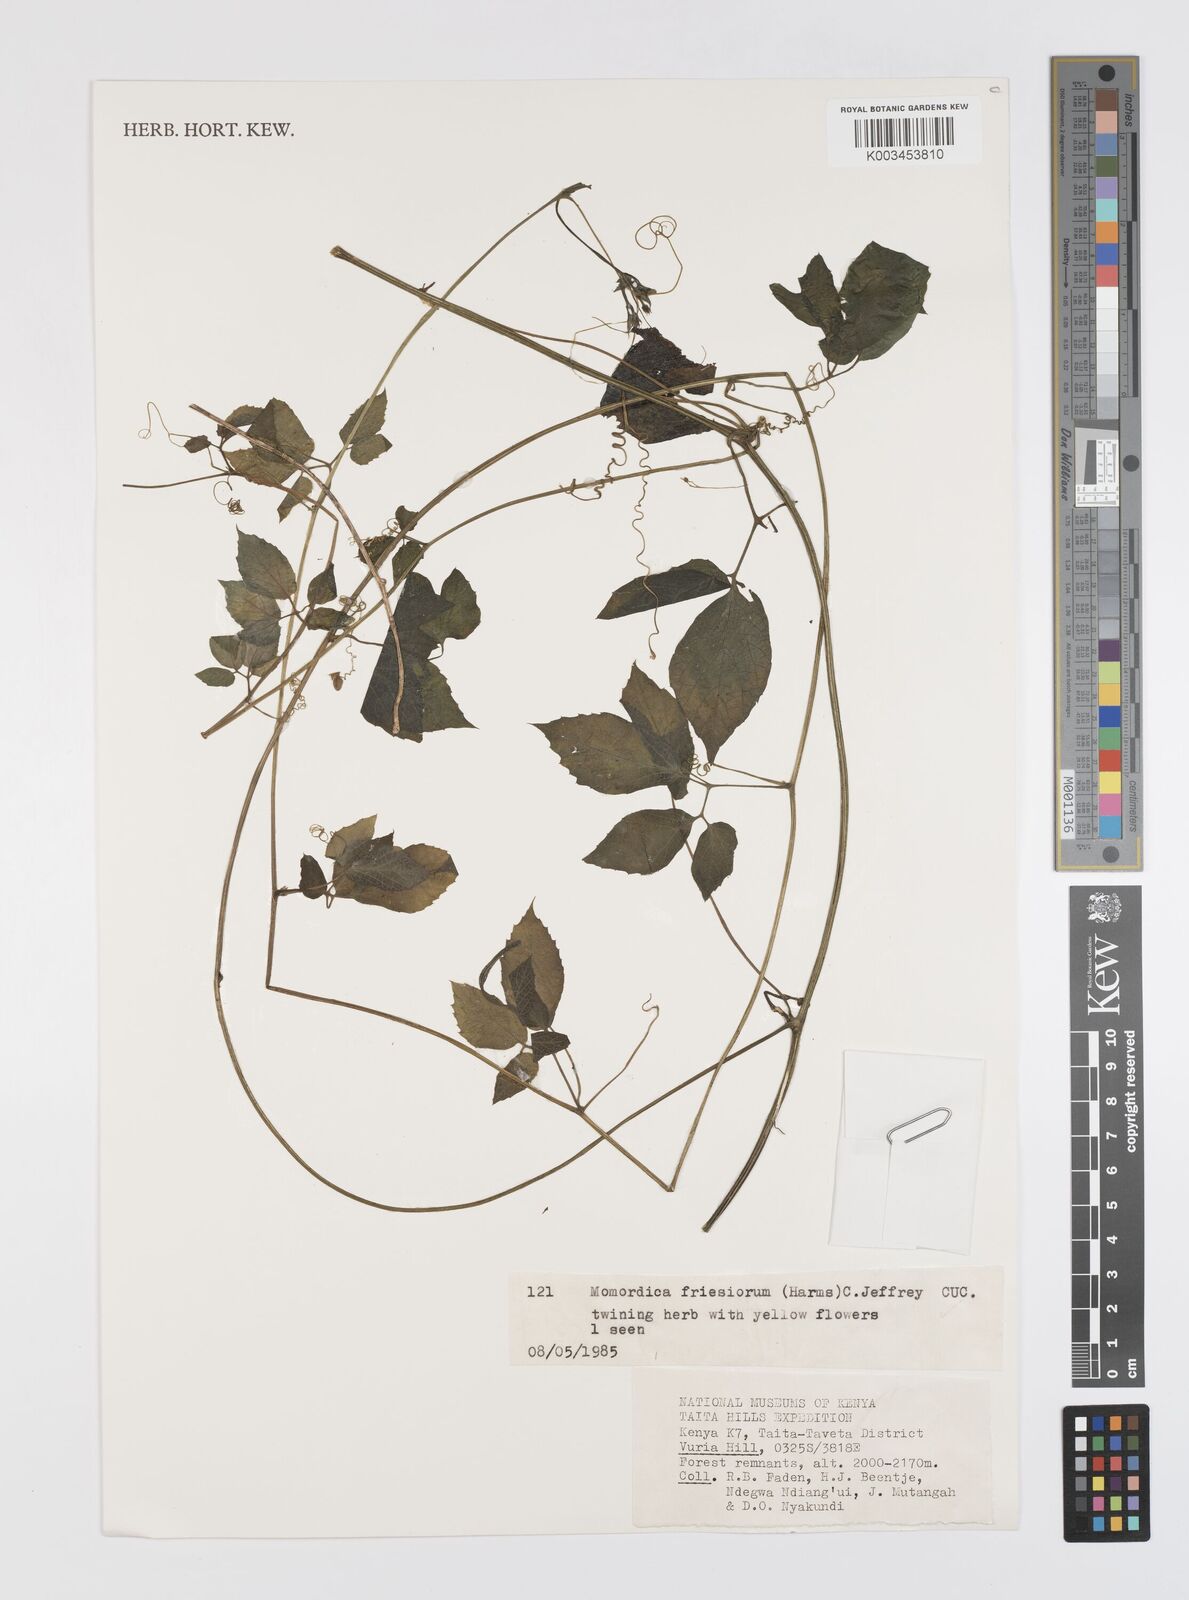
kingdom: Plantae
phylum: Tracheophyta
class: Magnoliopsida
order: Cucurbitales
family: Cucurbitaceae
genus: Momordica
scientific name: Momordica friesiorum
